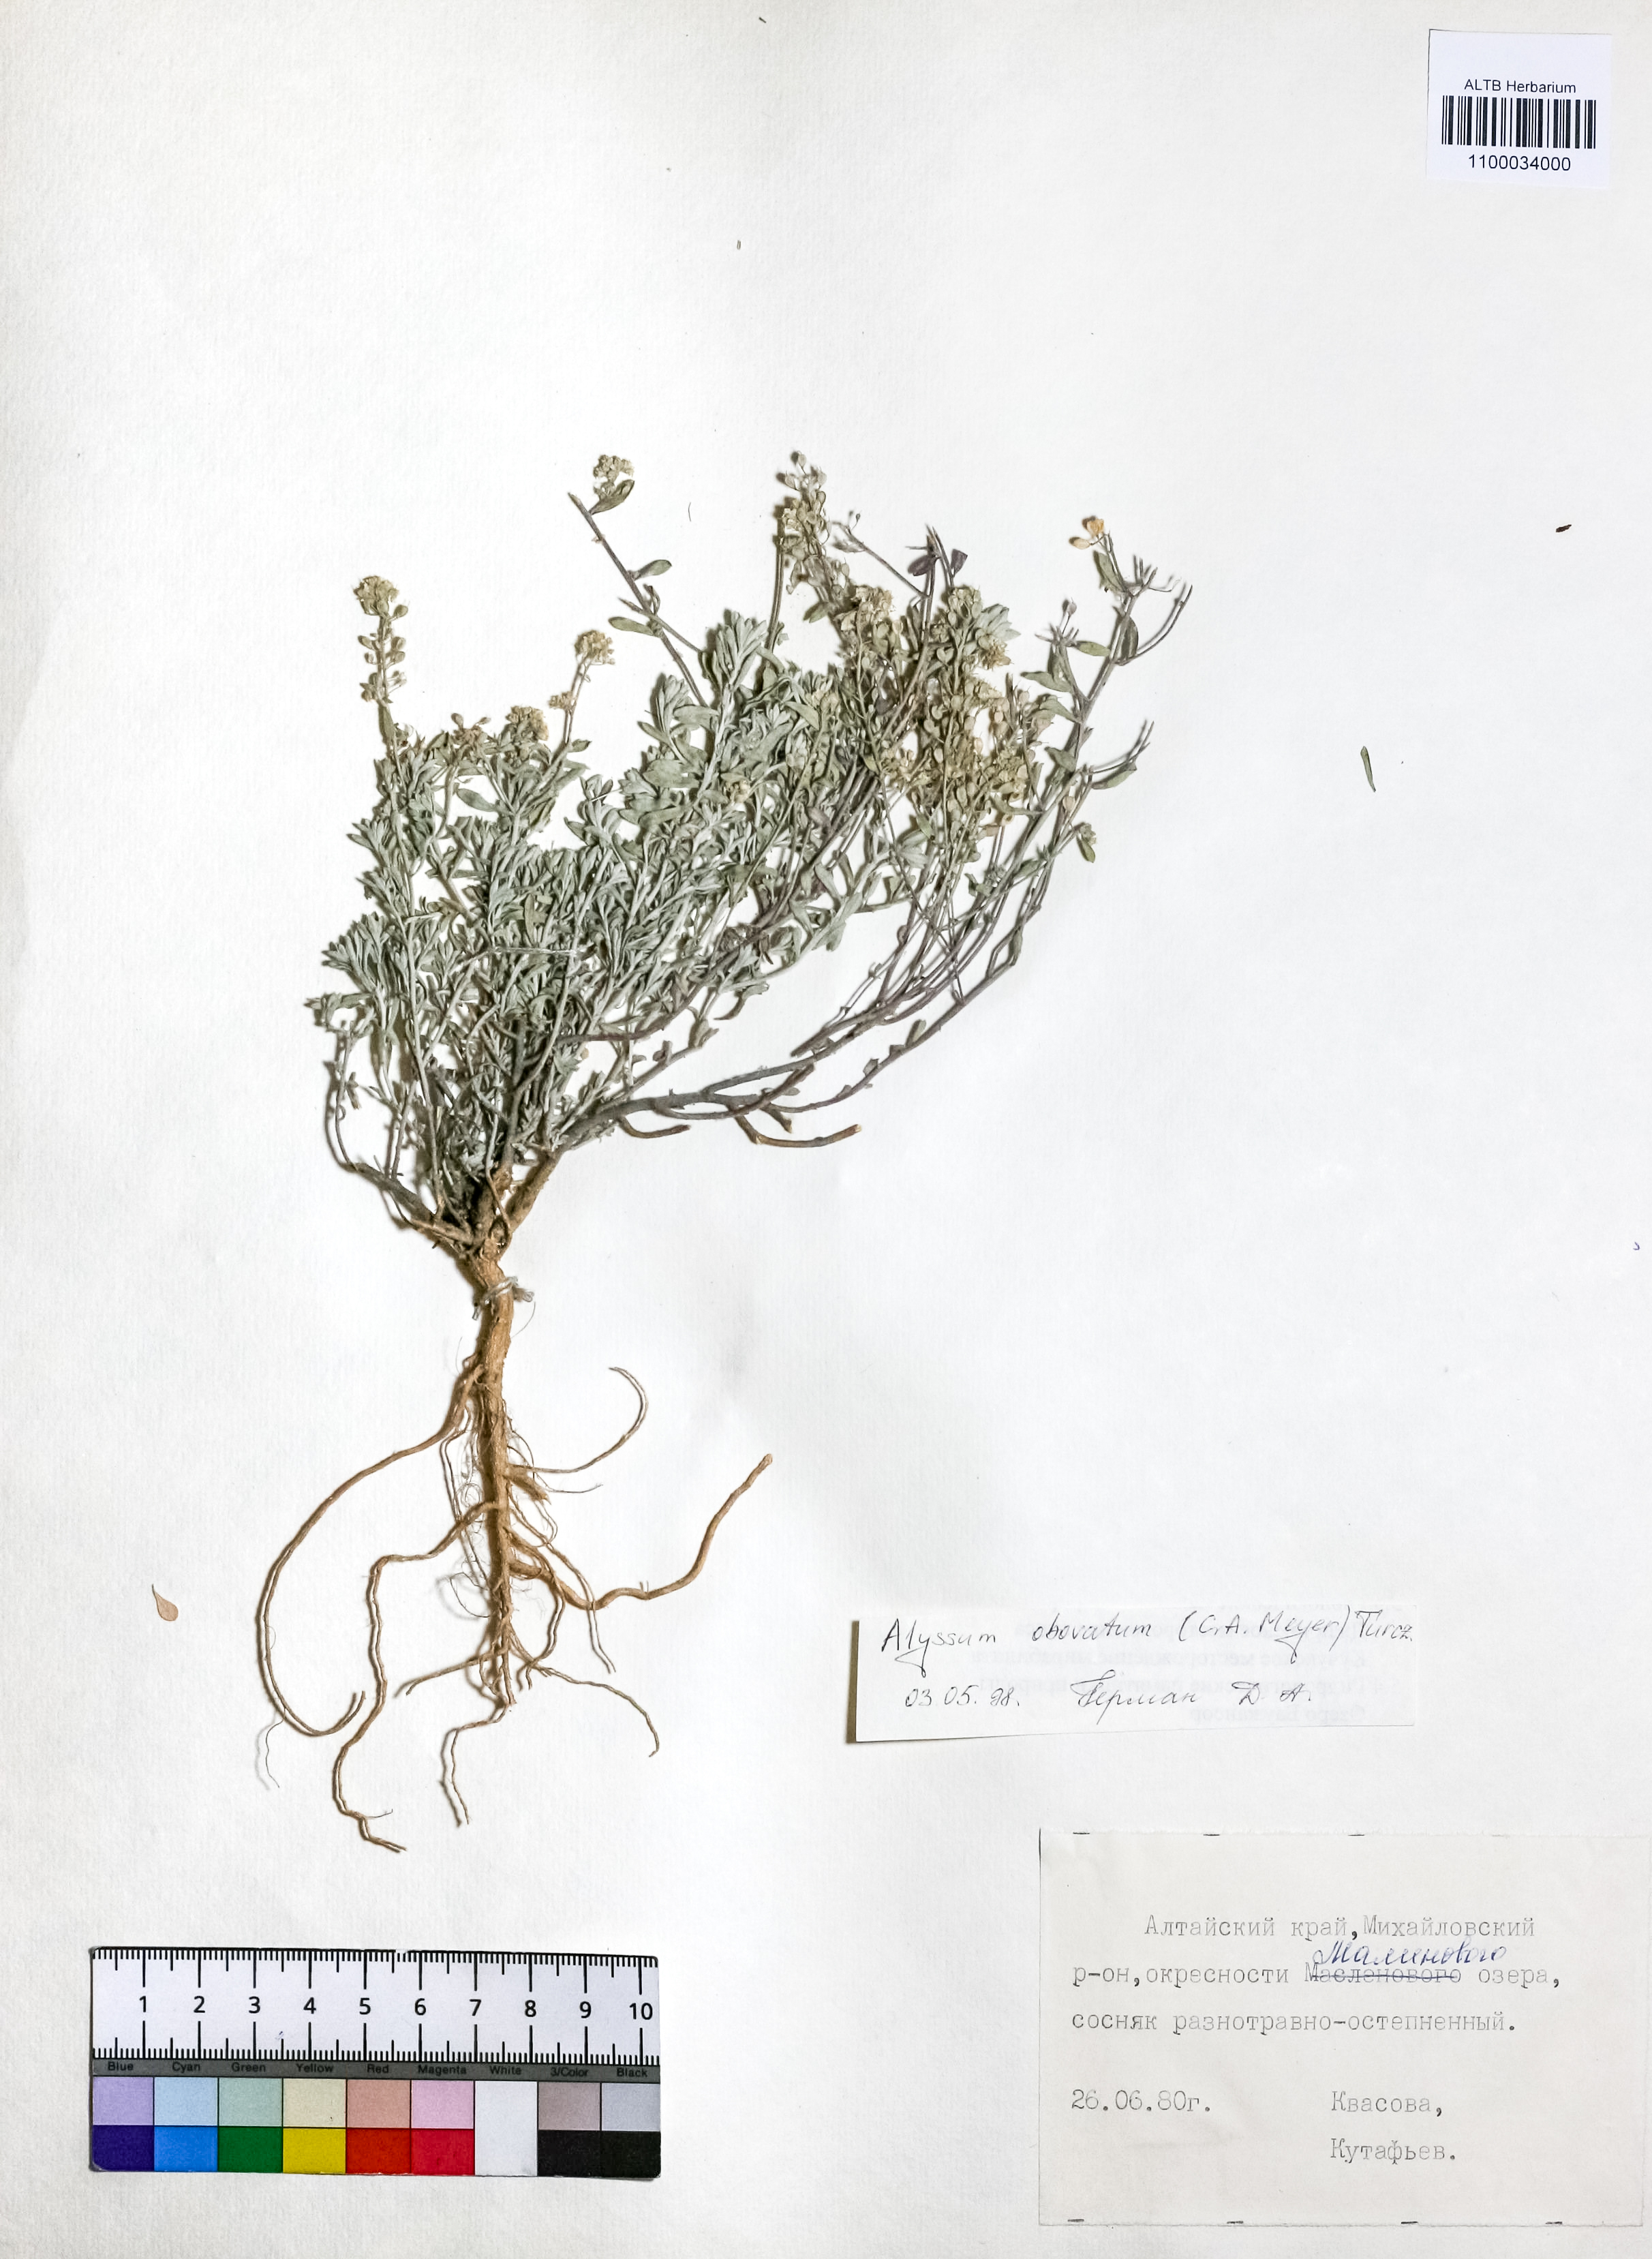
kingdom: Plantae
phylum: Tracheophyta
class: Magnoliopsida
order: Brassicales
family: Brassicaceae
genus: Odontarrhena
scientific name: Odontarrhena obovata
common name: American alyssum
